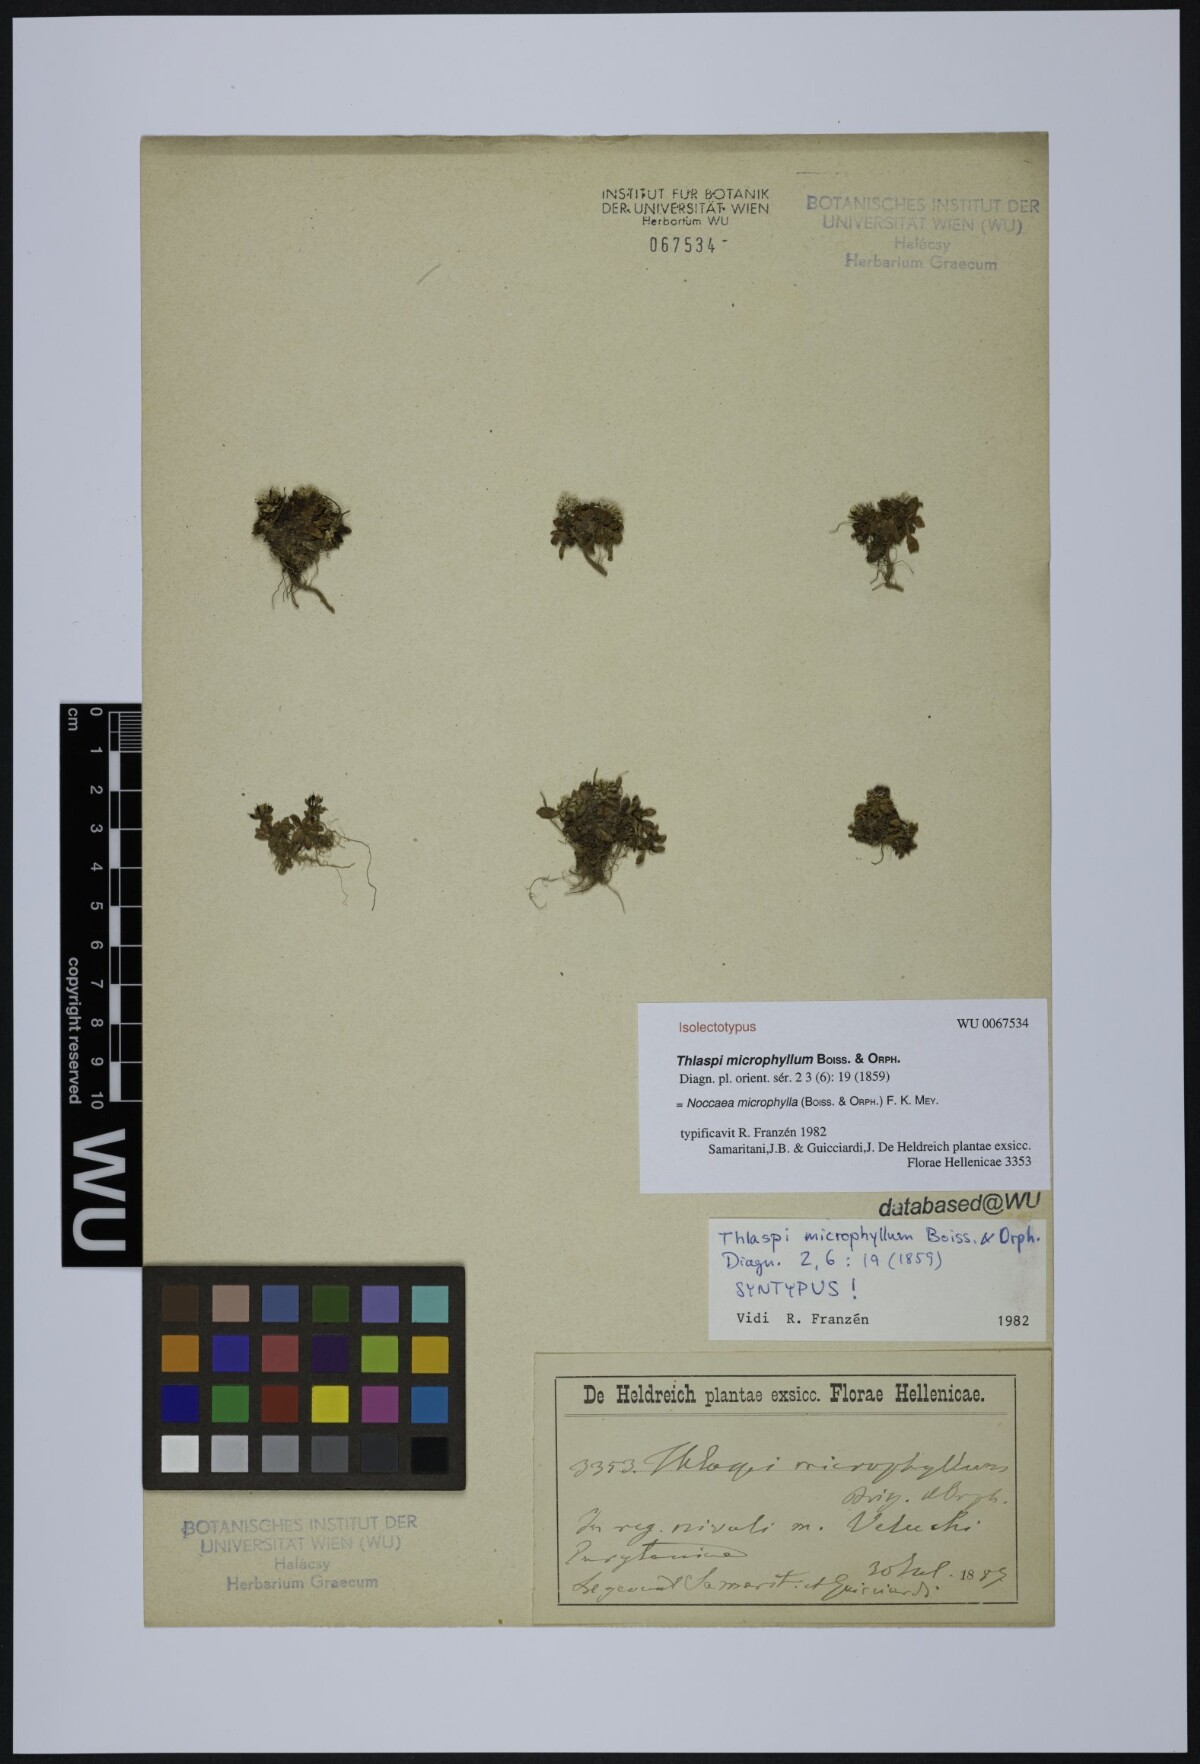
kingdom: Plantae
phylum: Tracheophyta
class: Magnoliopsida
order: Brassicales
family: Brassicaceae
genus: Noccaea
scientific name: Noccaea microphylla
